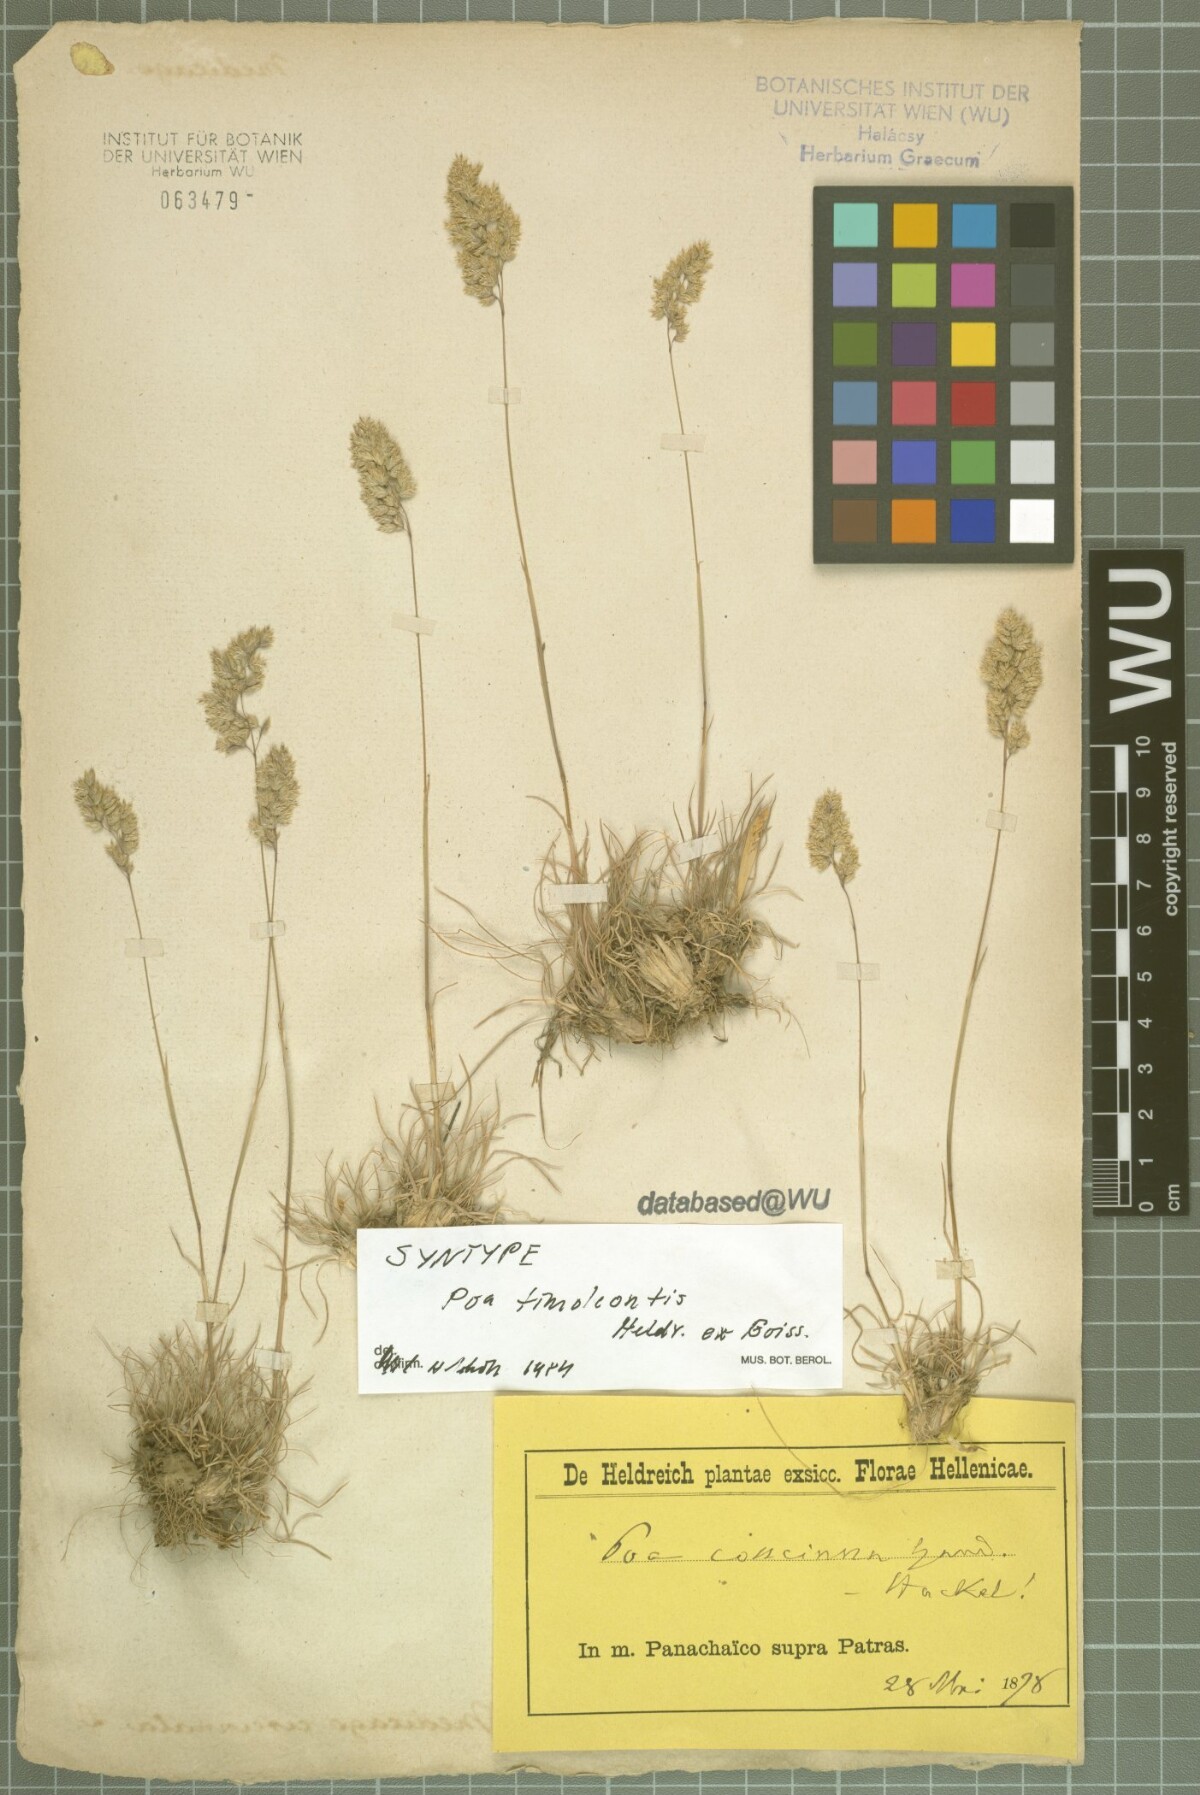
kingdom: Plantae
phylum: Tracheophyta
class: Liliopsida
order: Poales
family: Poaceae
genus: Poa
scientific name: Poa timoleontis
